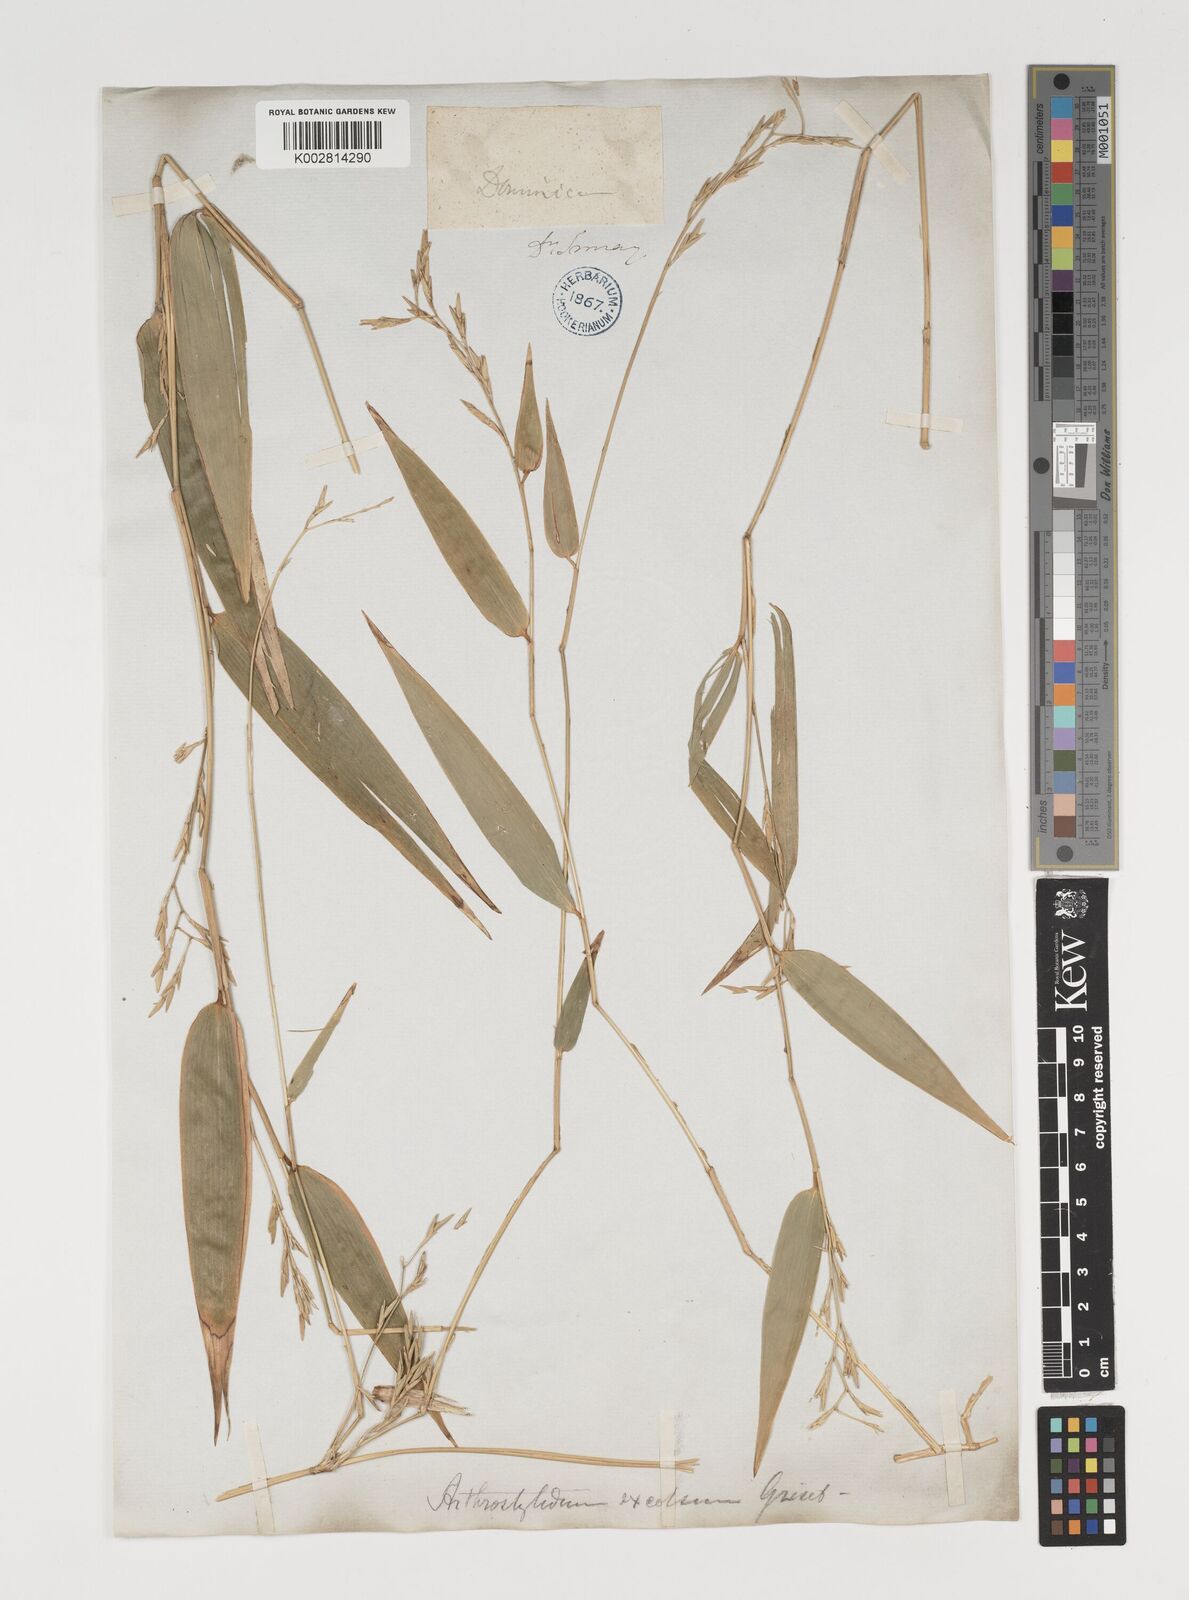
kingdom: Plantae
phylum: Tracheophyta
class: Liliopsida
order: Poales
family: Poaceae
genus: Arthrostylidium
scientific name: Arthrostylidium excelsum
